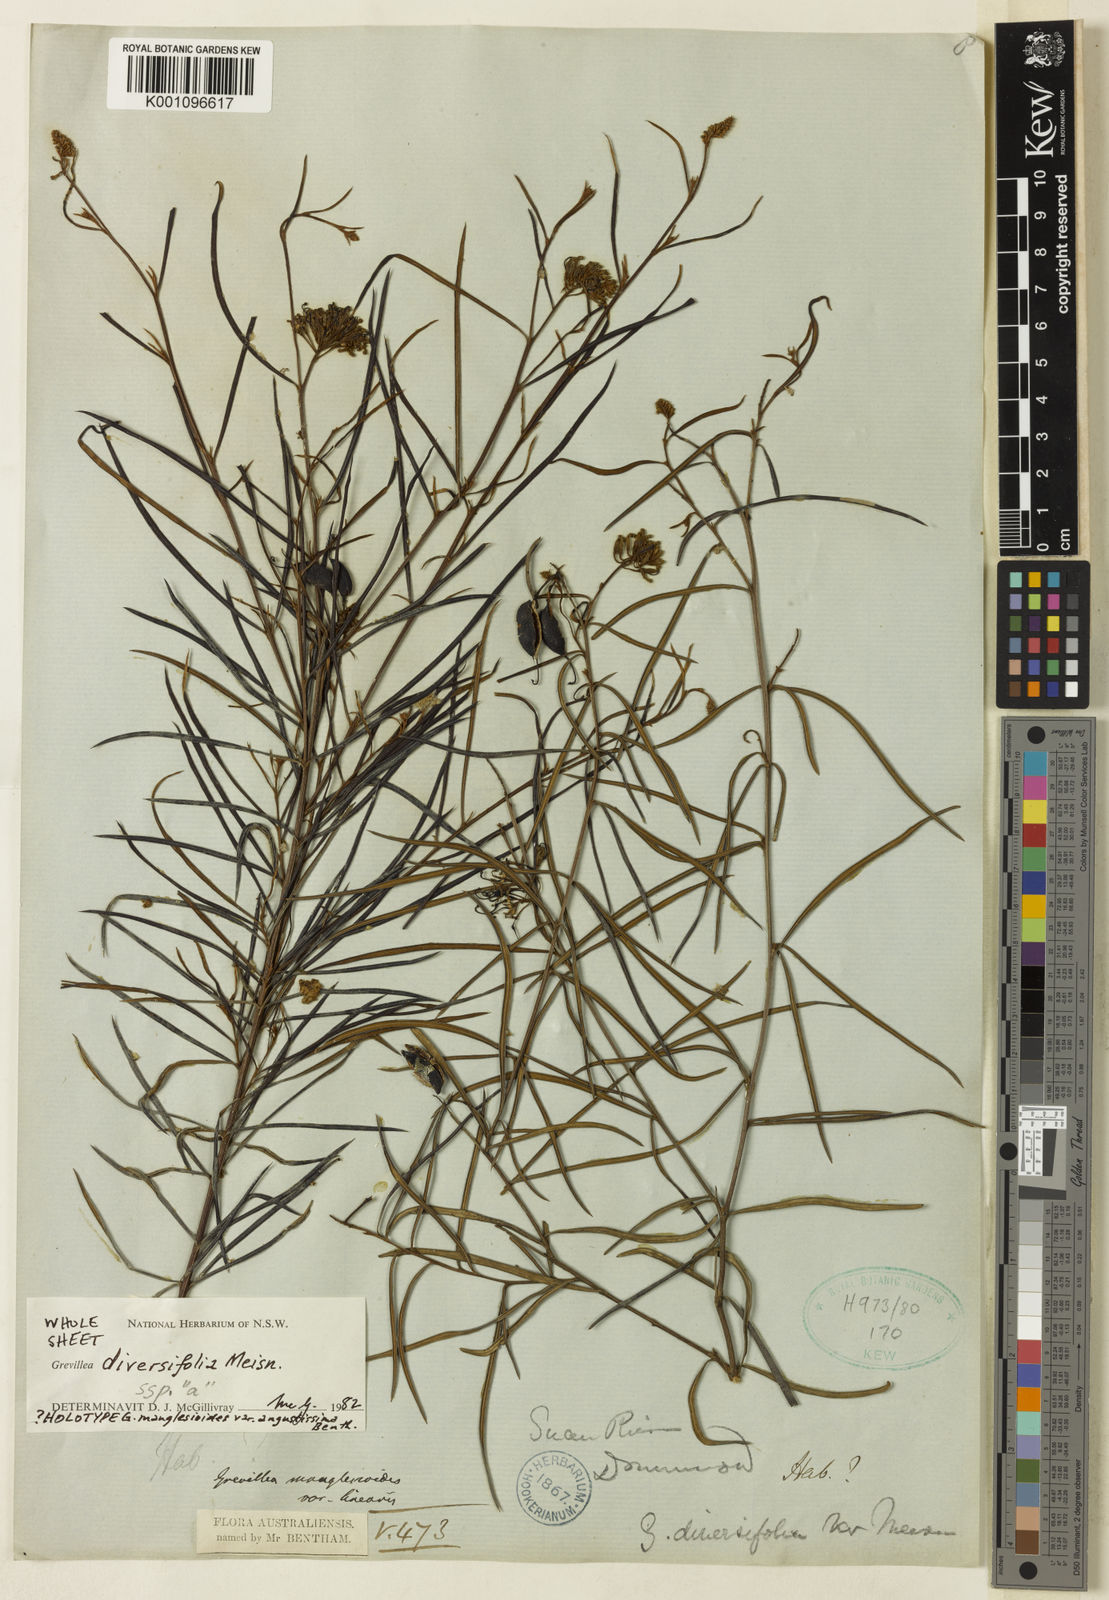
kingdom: Plantae
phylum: Tracheophyta
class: Magnoliopsida
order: Proteales
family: Proteaceae
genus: Grevillea
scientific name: Grevillea diversifolia
